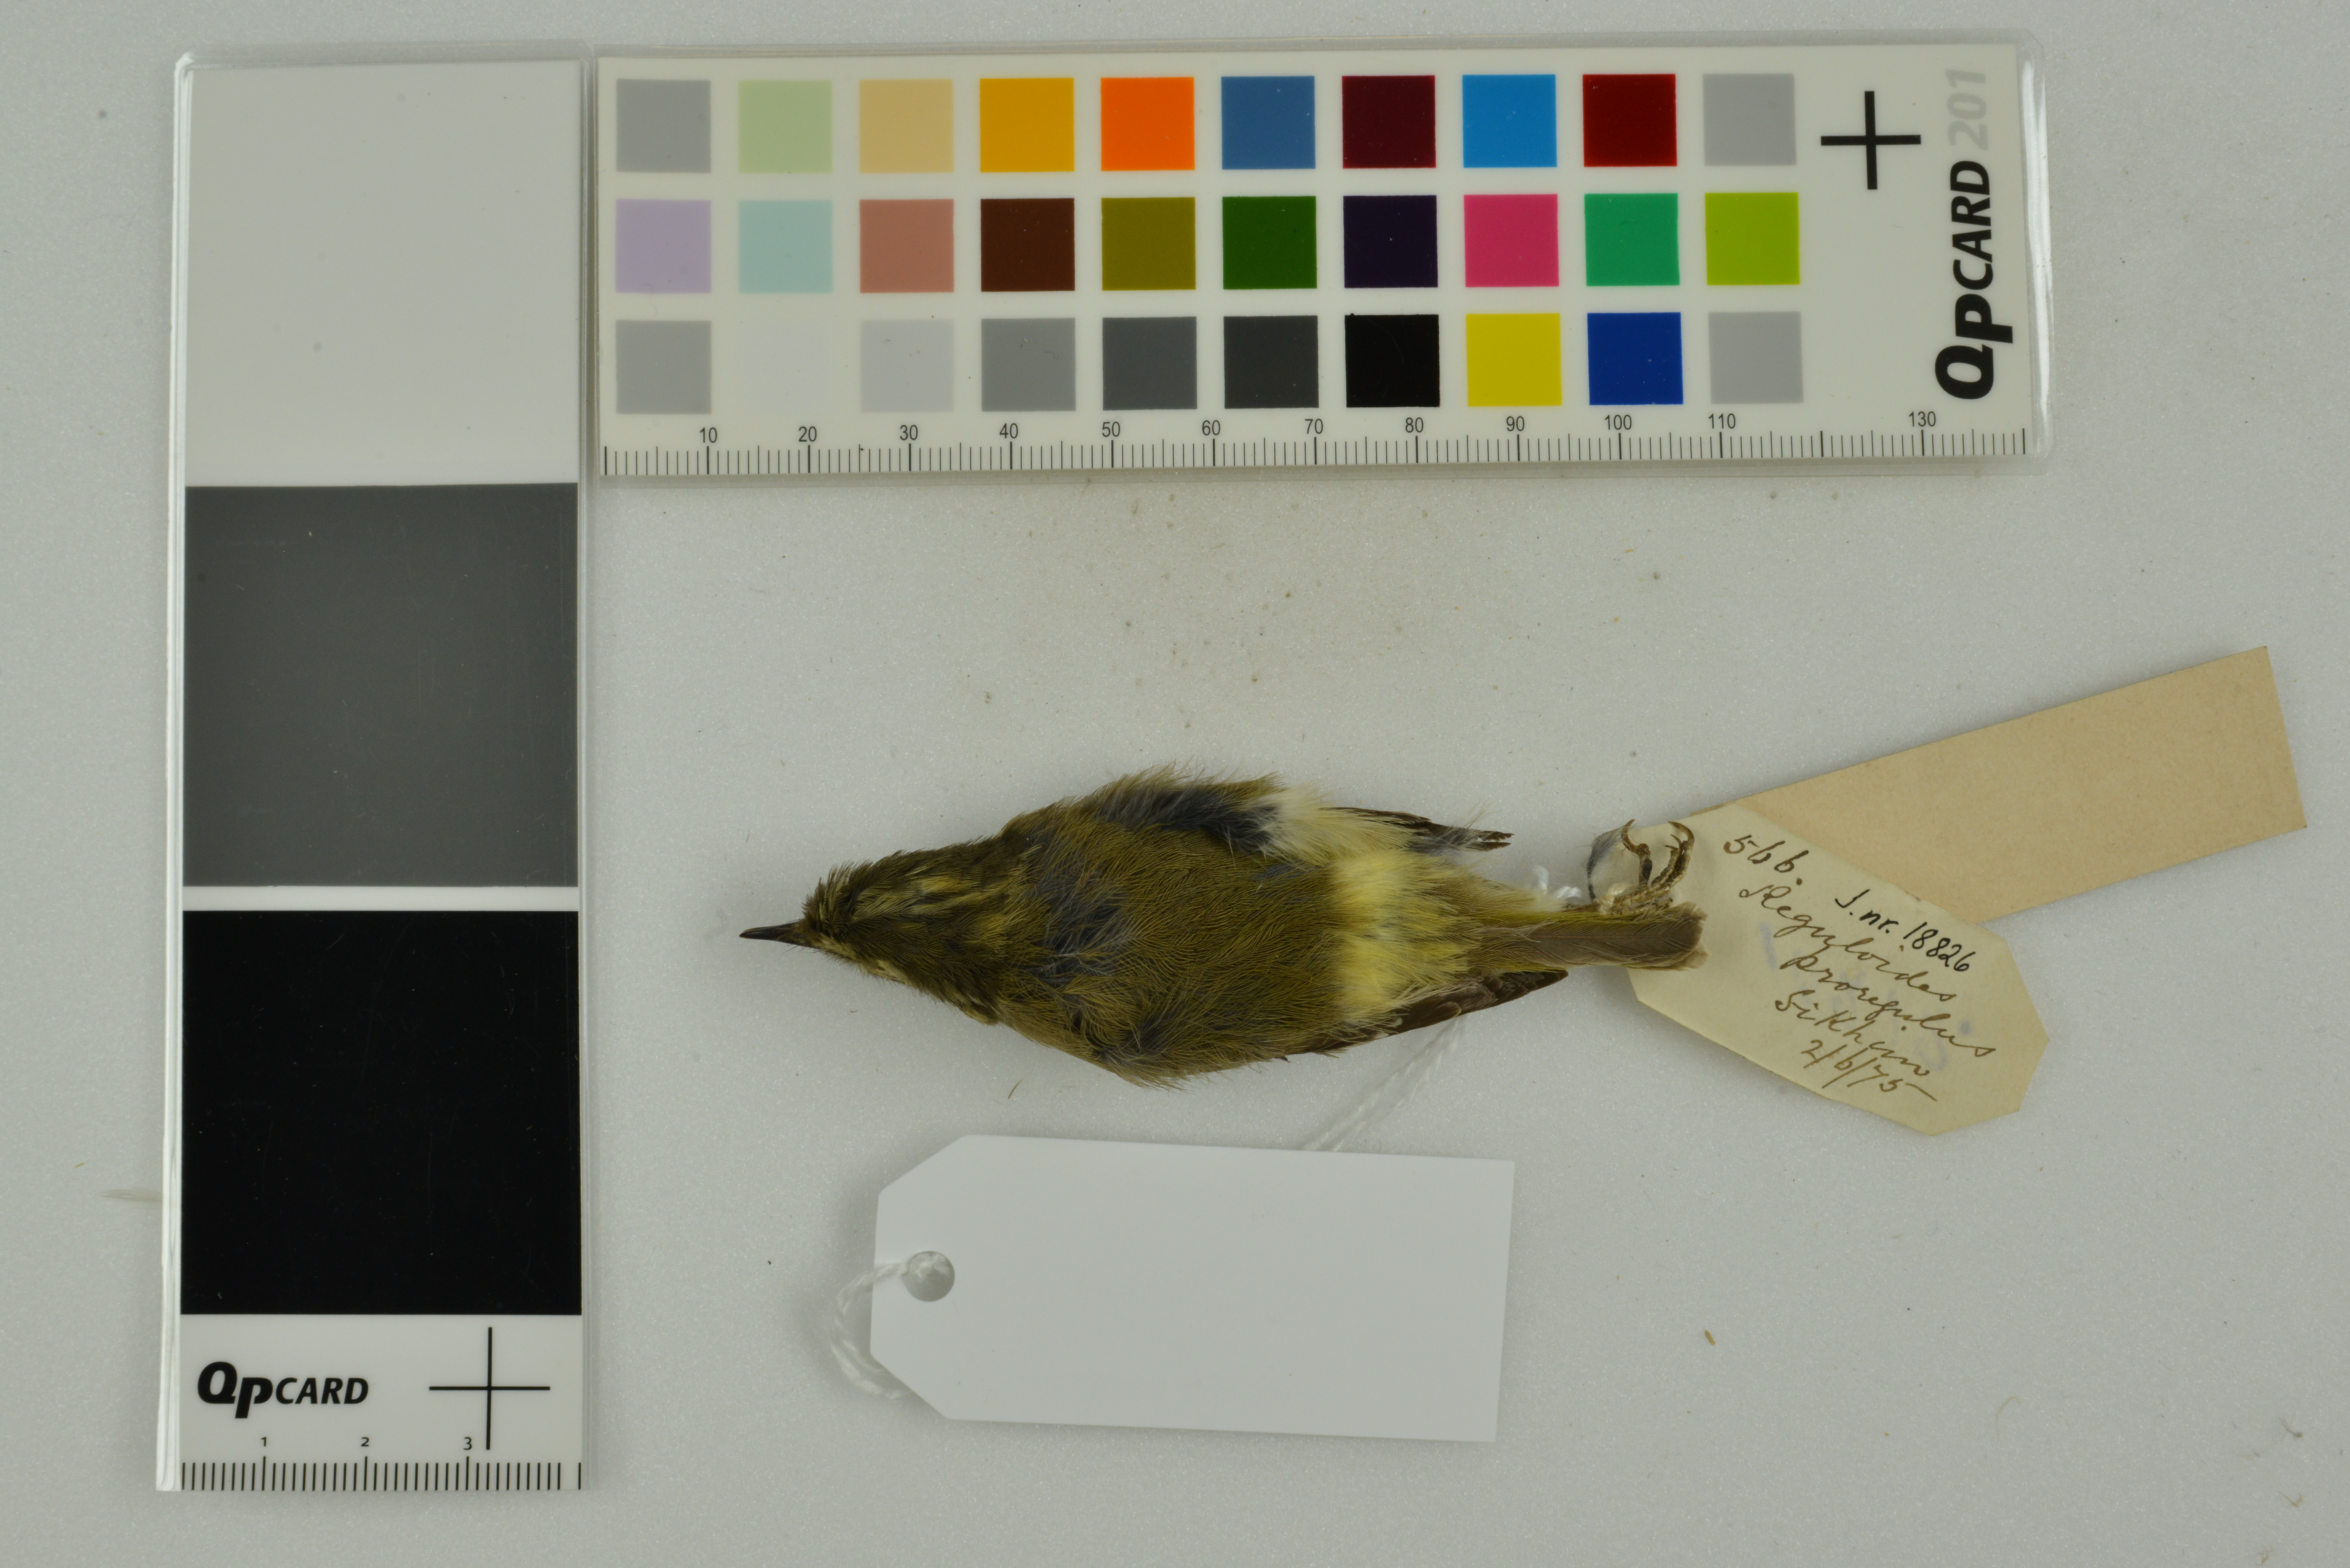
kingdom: Animalia
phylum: Chordata
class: Aves
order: Passeriformes
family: Phylloscopidae
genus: Phylloscopus
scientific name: Phylloscopus proregulus
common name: Pallas's leaf warbler
